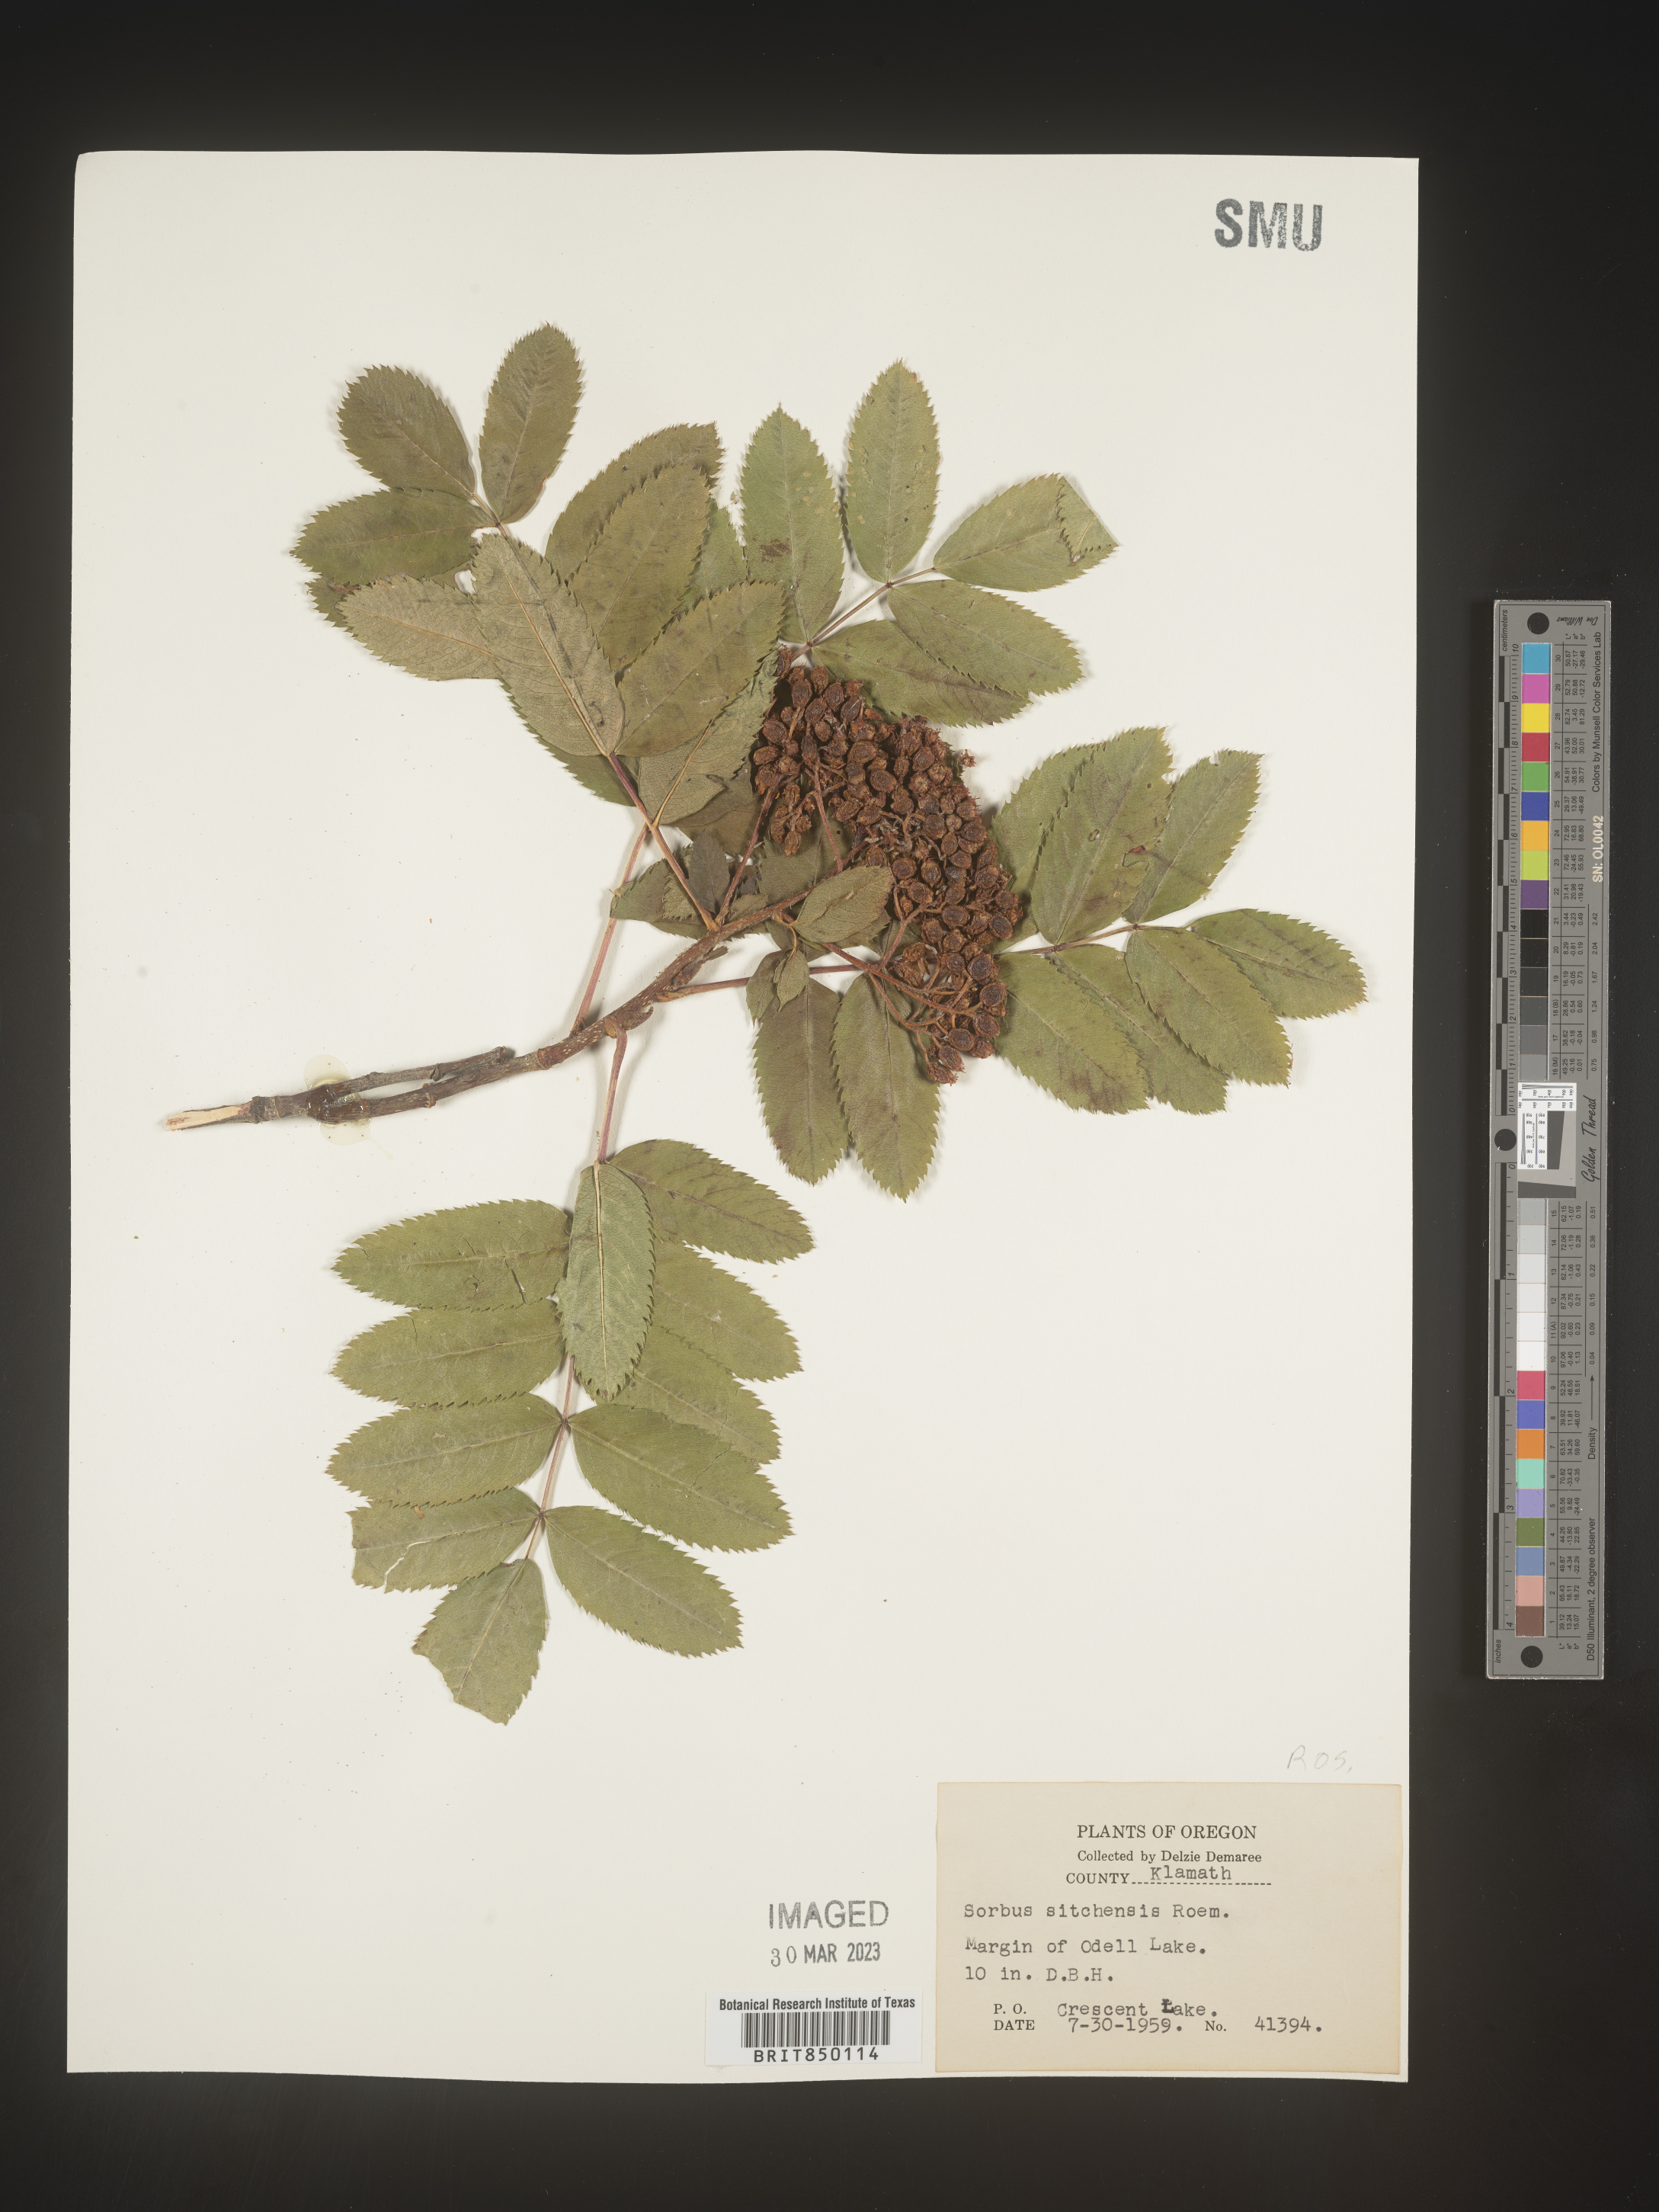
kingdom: Plantae
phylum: Tracheophyta
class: Magnoliopsida
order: Rosales
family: Rosaceae
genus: Sorbus
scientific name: Sorbus
